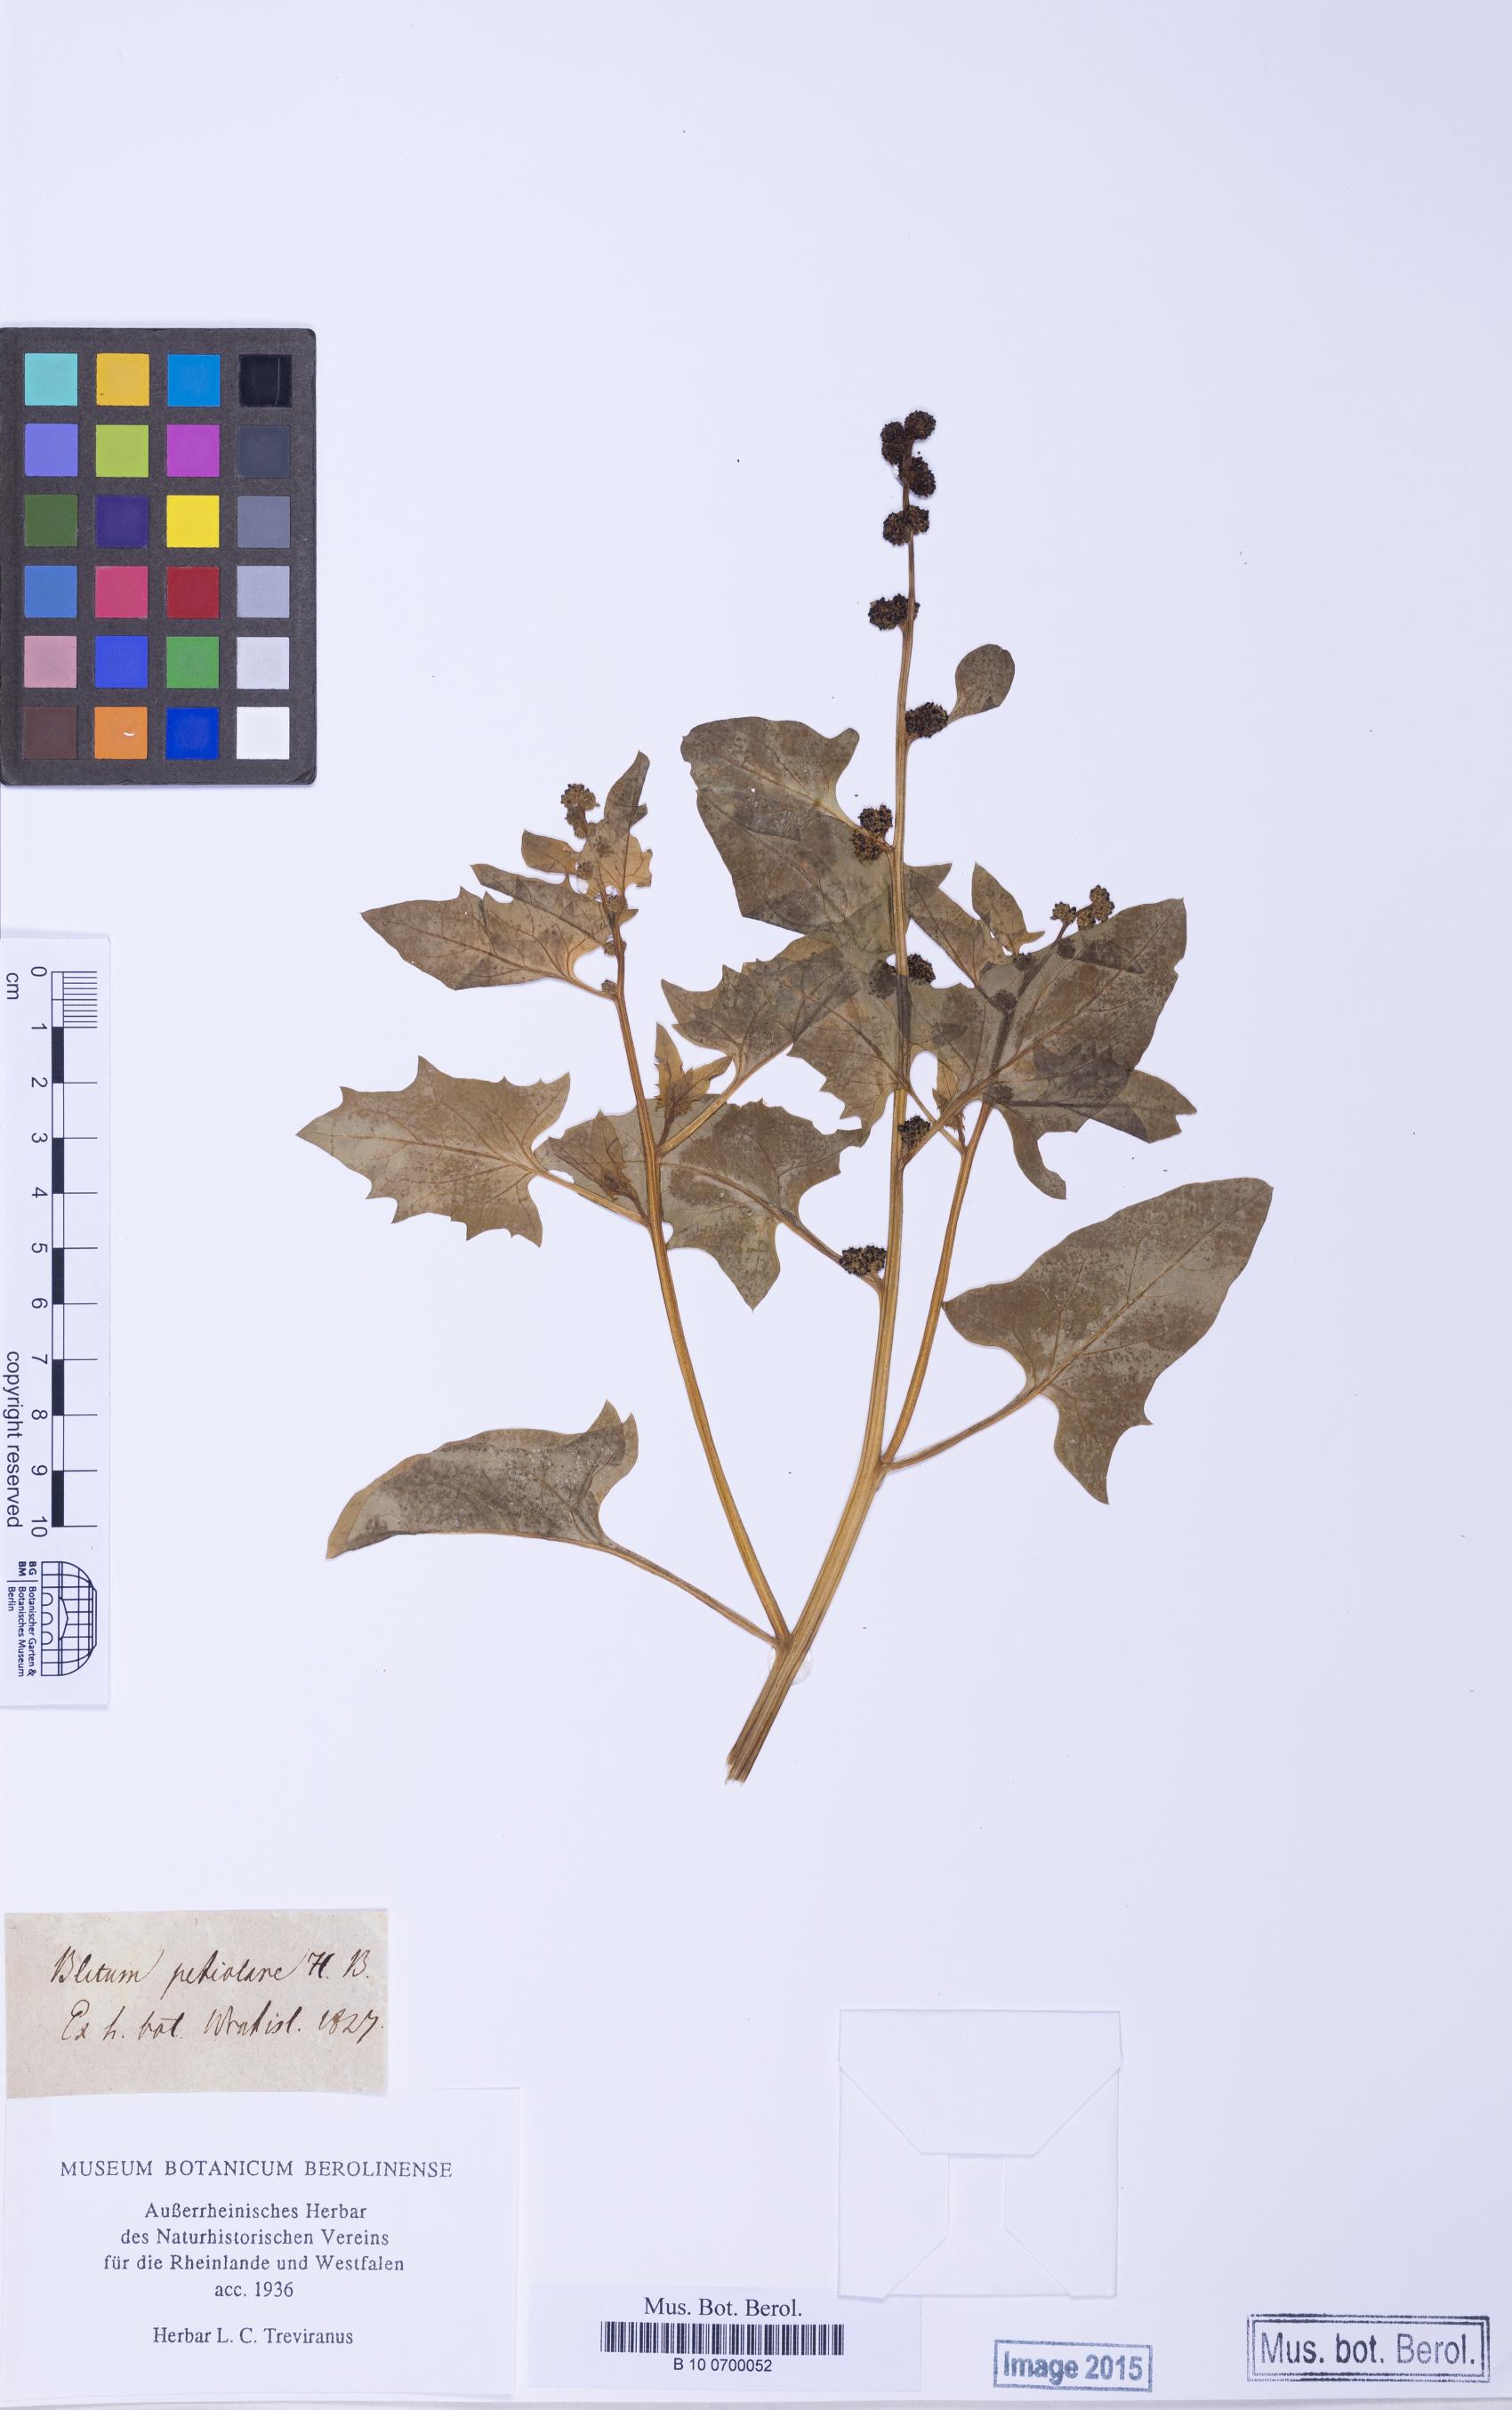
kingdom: Plantae
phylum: Tracheophyta
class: Magnoliopsida
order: Caryophyllales
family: Amaranthaceae
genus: Blitum
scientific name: Blitum capitatum
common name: Strawberry-blight
